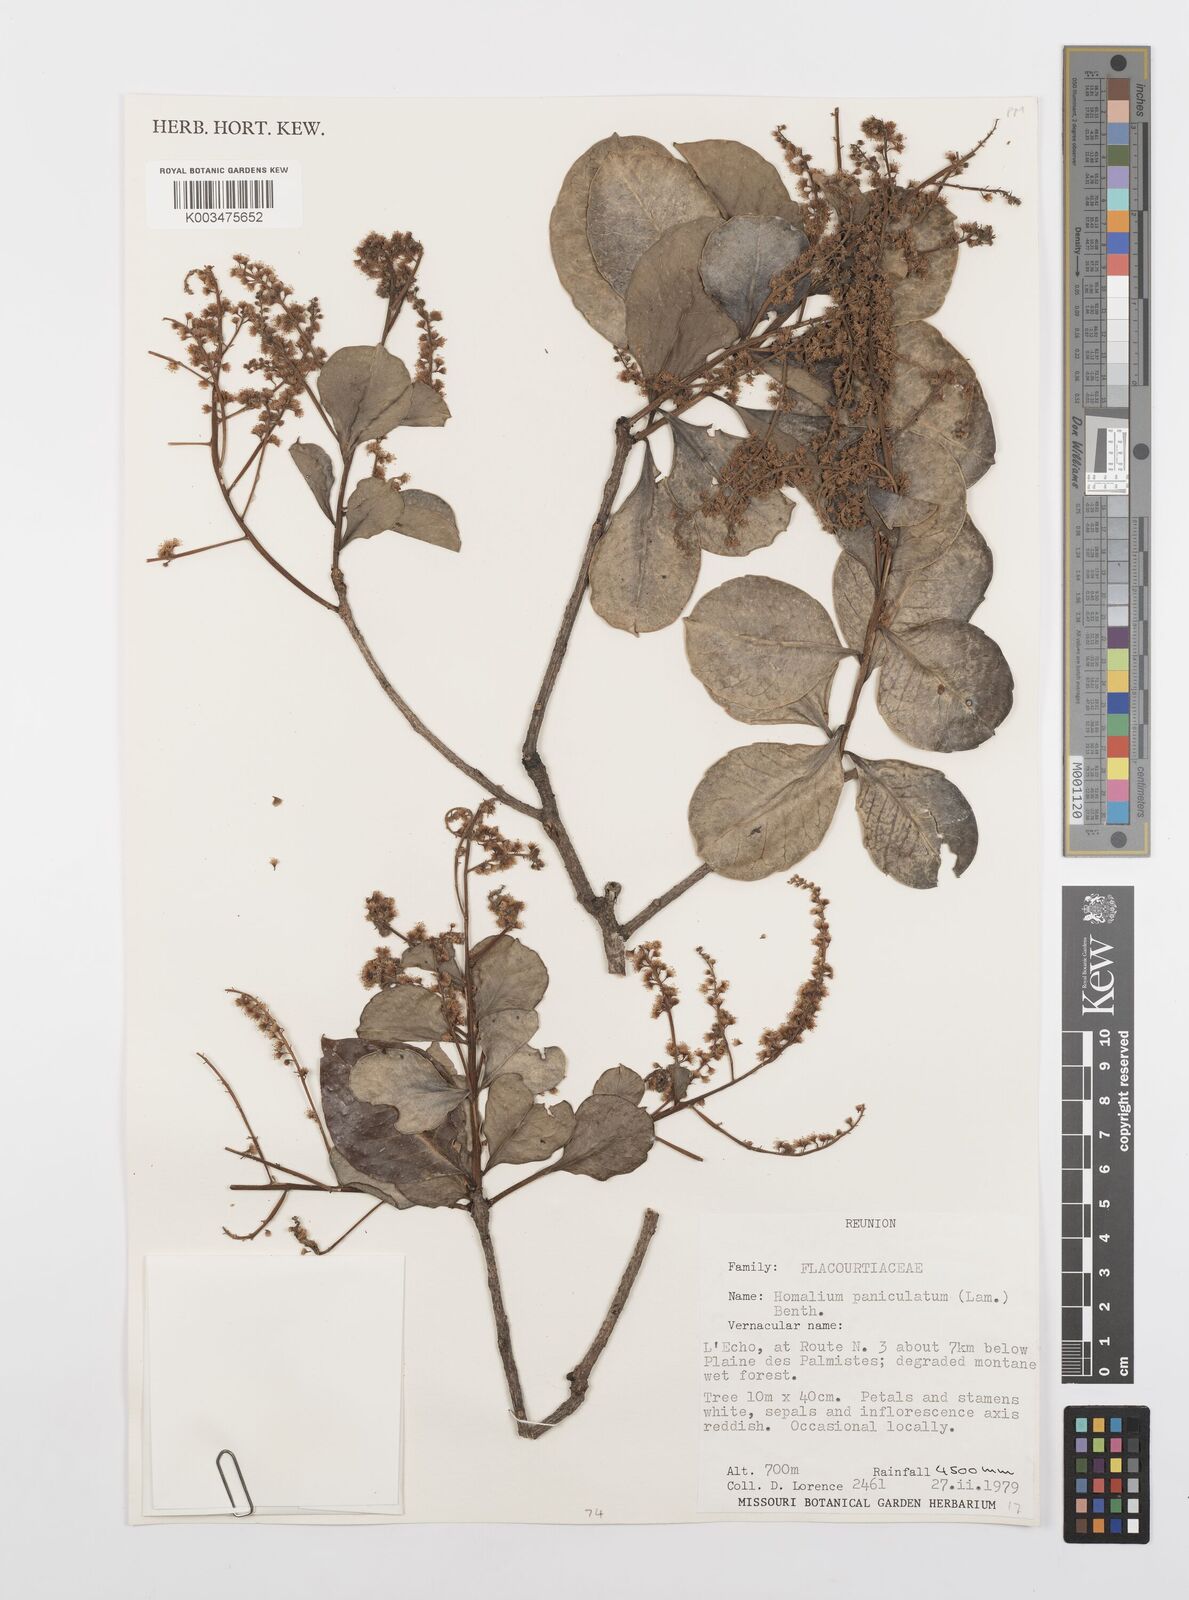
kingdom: Plantae
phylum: Tracheophyta
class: Magnoliopsida
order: Malpighiales
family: Salicaceae
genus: Homalium
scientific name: Homalium erianthum
